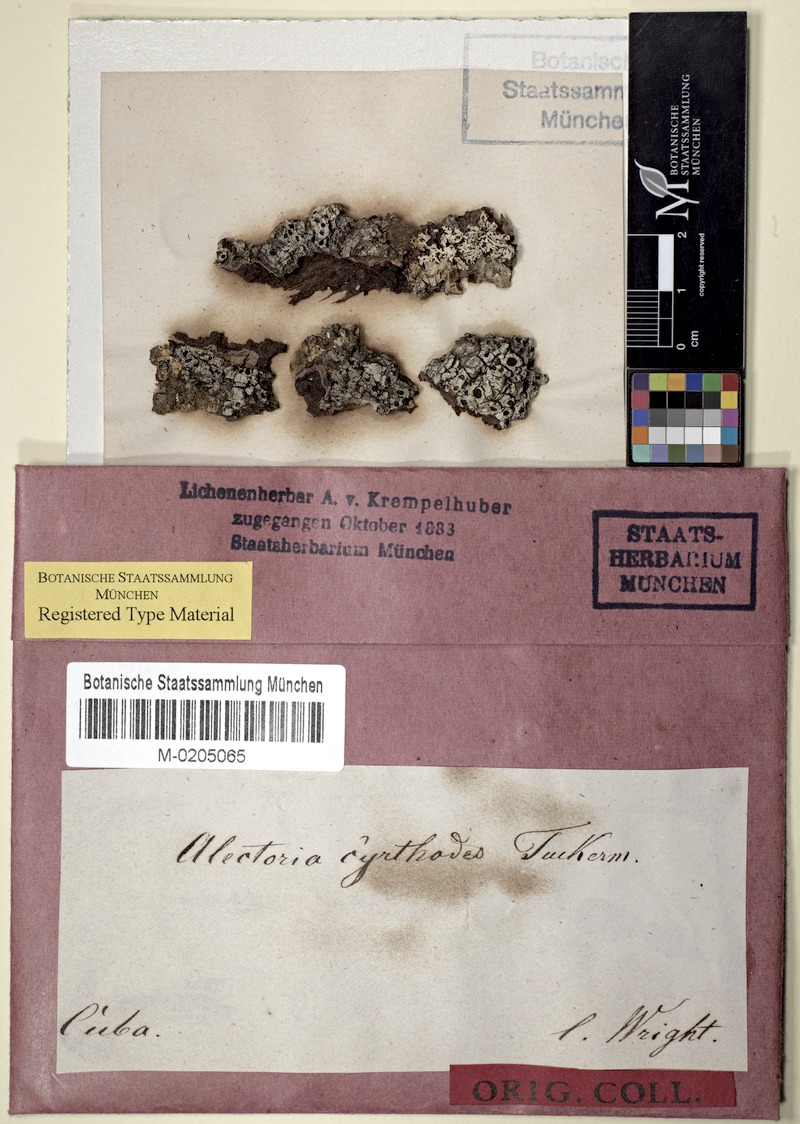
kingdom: Fungi
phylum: Ascomycota
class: Arthoniomycetes
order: Arthoniales
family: Arthoniaceae
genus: Arthothelium
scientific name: Arthothelium cyrtodes
